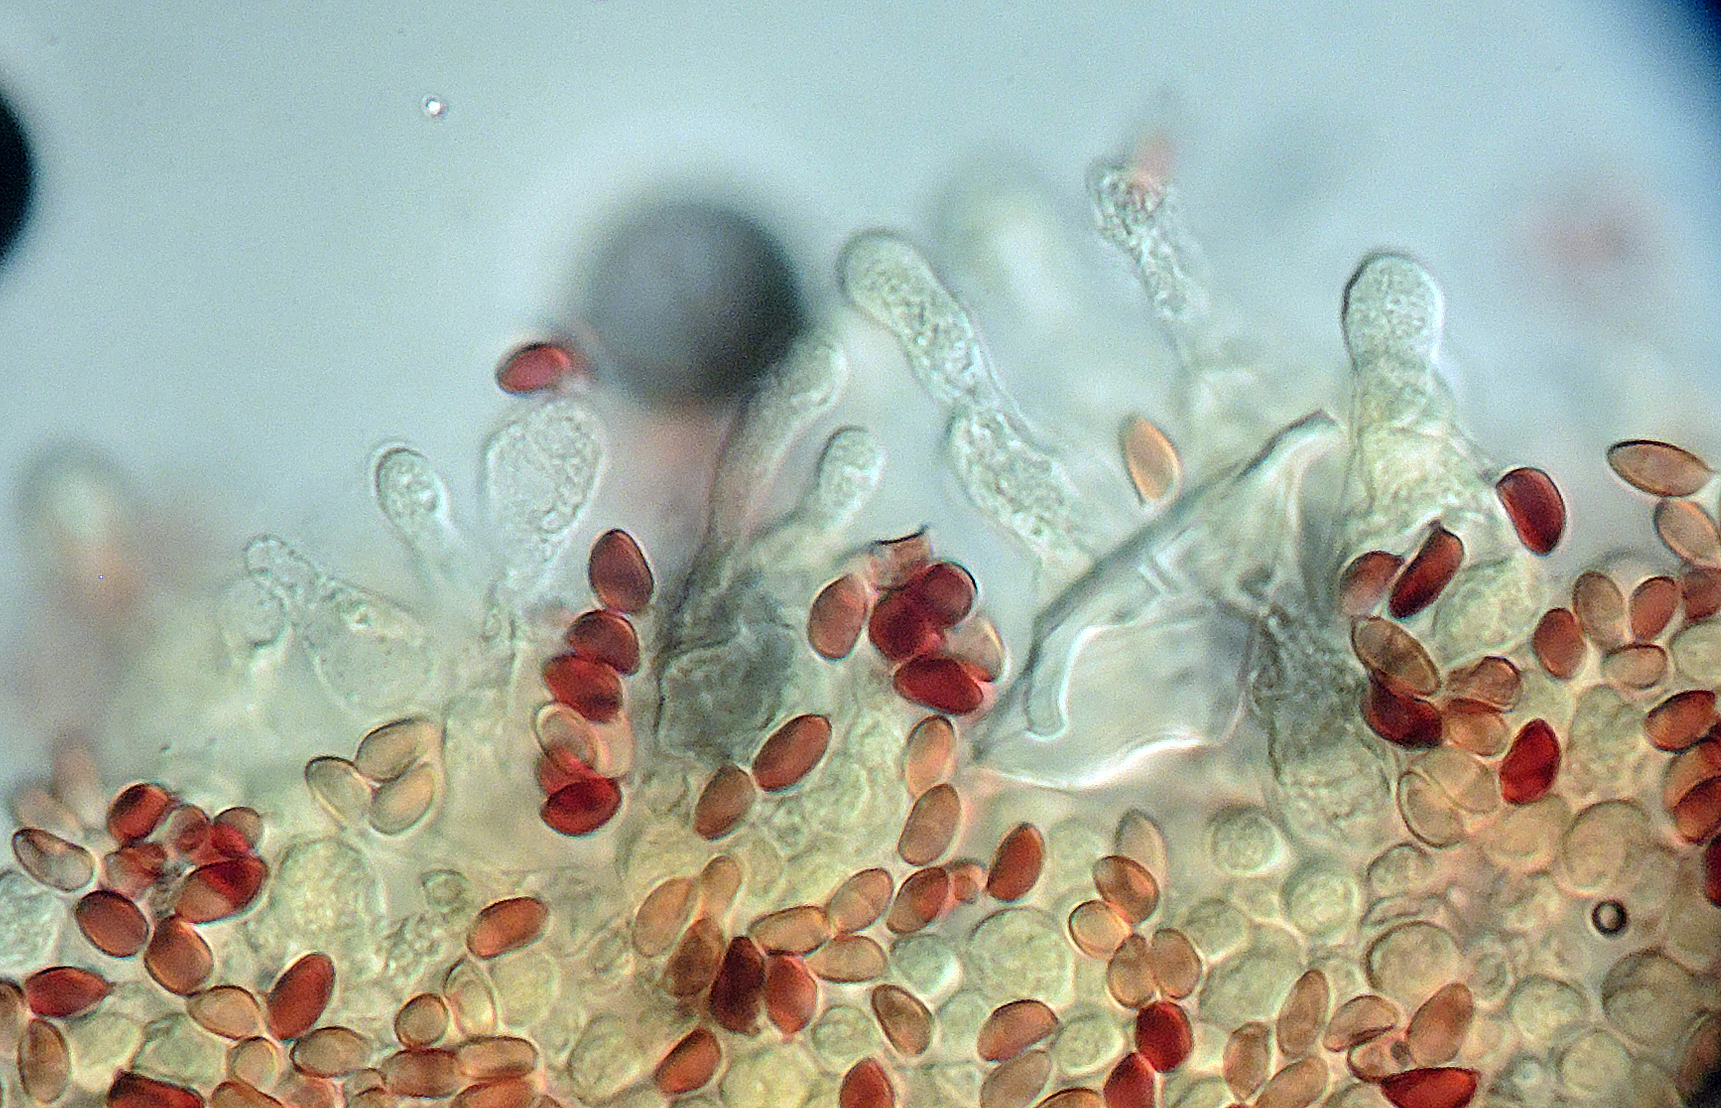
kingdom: Fungi
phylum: Basidiomycota
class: Agaricomycetes
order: Agaricales
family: Agaricaceae
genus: Leucoagaricus
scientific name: Leucoagaricus sericifer
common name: hvid silkehat
